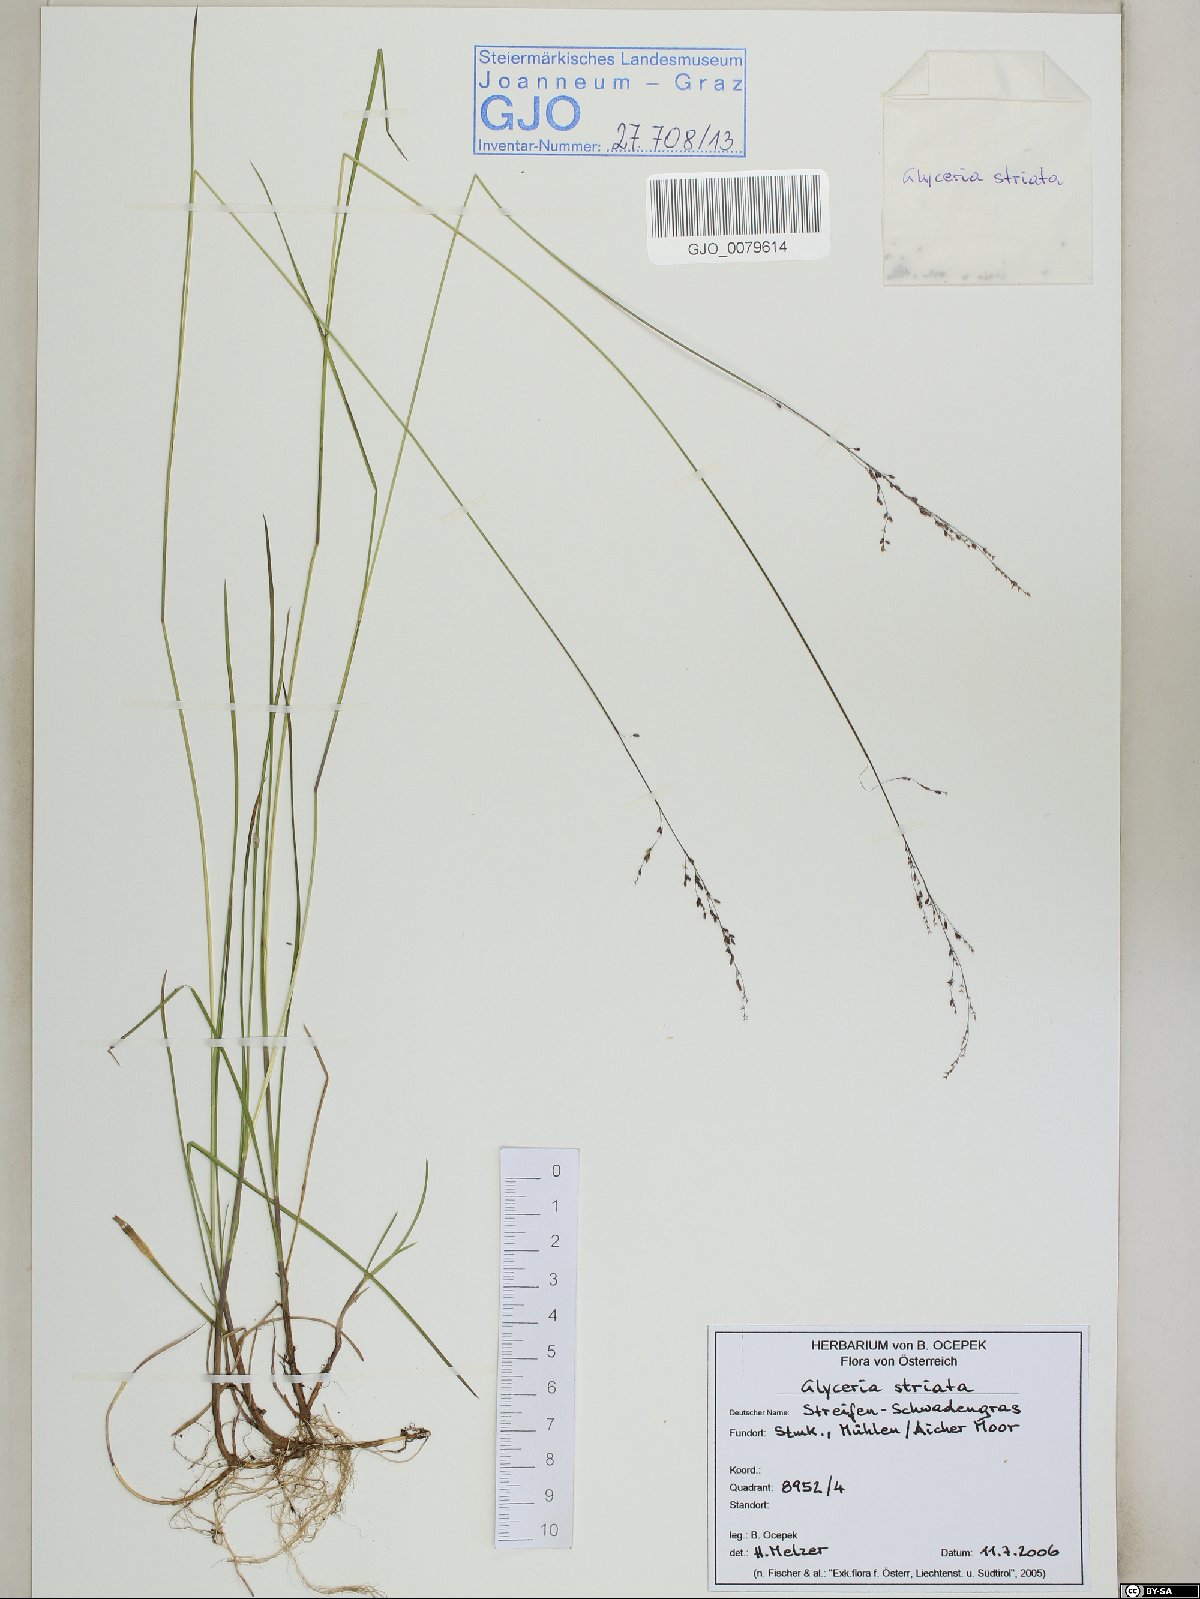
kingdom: Plantae
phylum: Tracheophyta
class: Liliopsida
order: Poales
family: Poaceae
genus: Glyceria
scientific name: Glyceria striata
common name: Fowl manna grass
